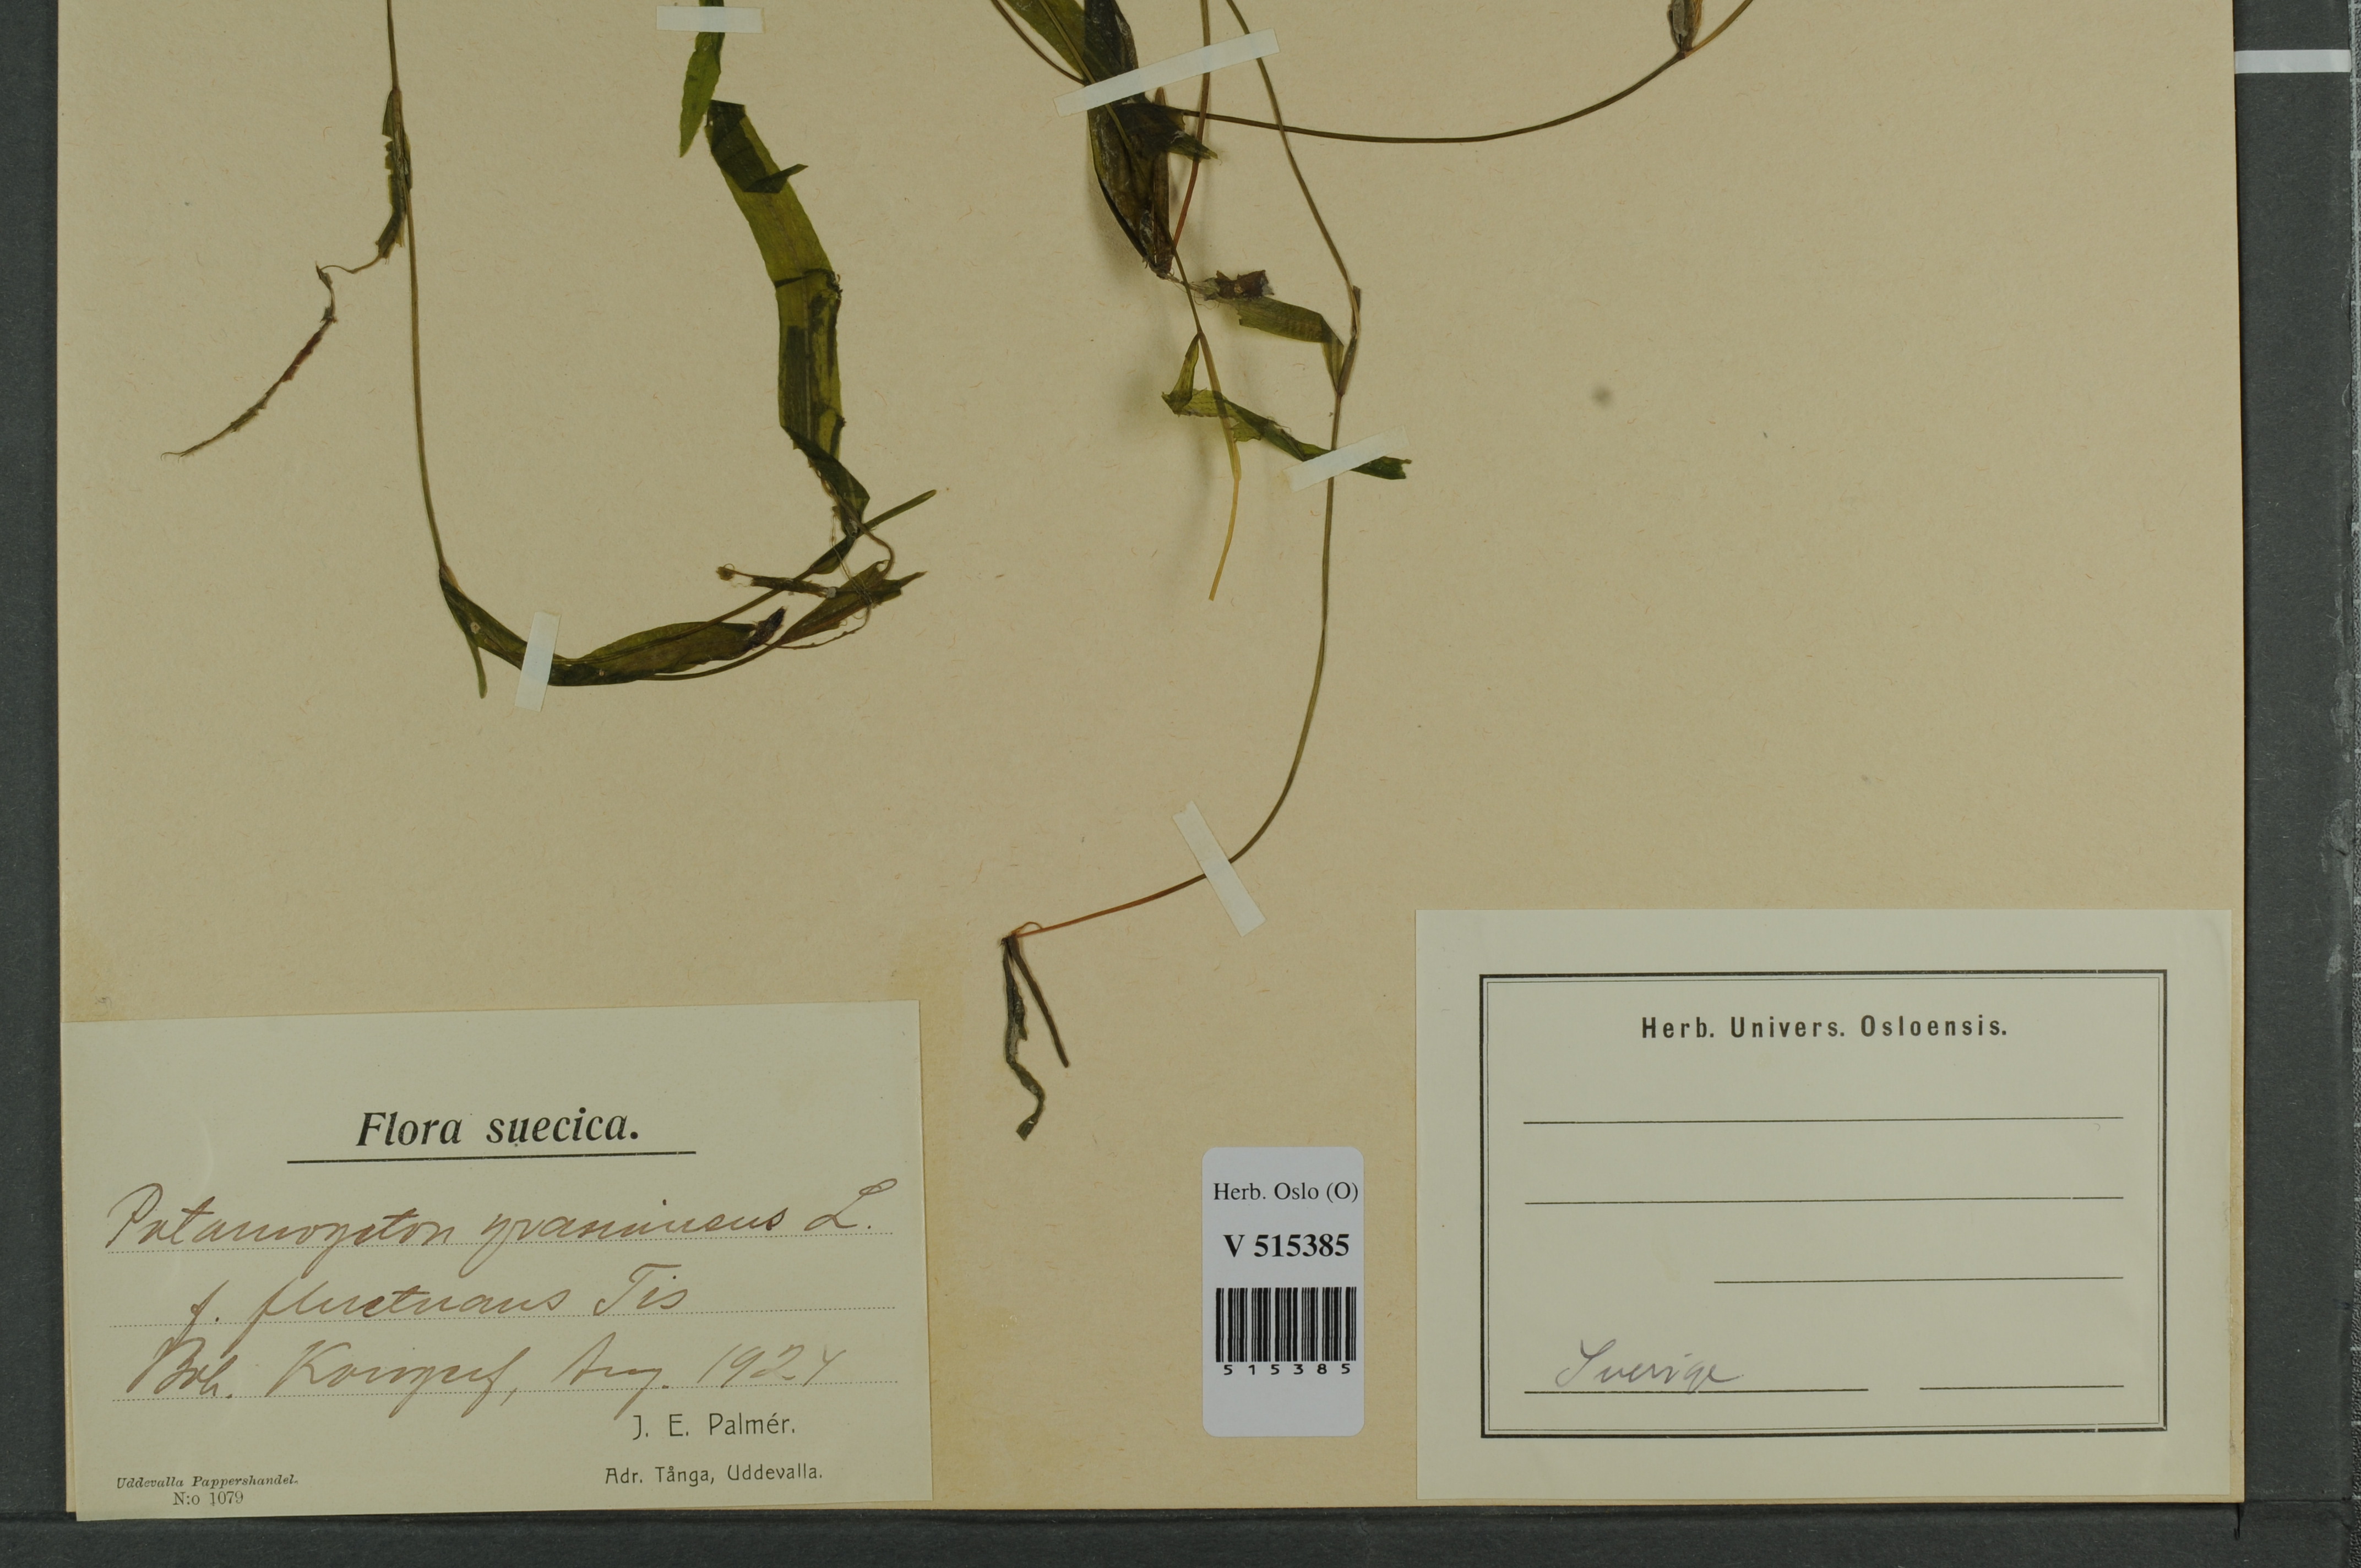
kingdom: Plantae
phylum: Tracheophyta
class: Liliopsida
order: Alismatales
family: Potamogetonaceae
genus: Potamogeton
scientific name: Potamogeton gramineus
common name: Various-leaved pondweed
